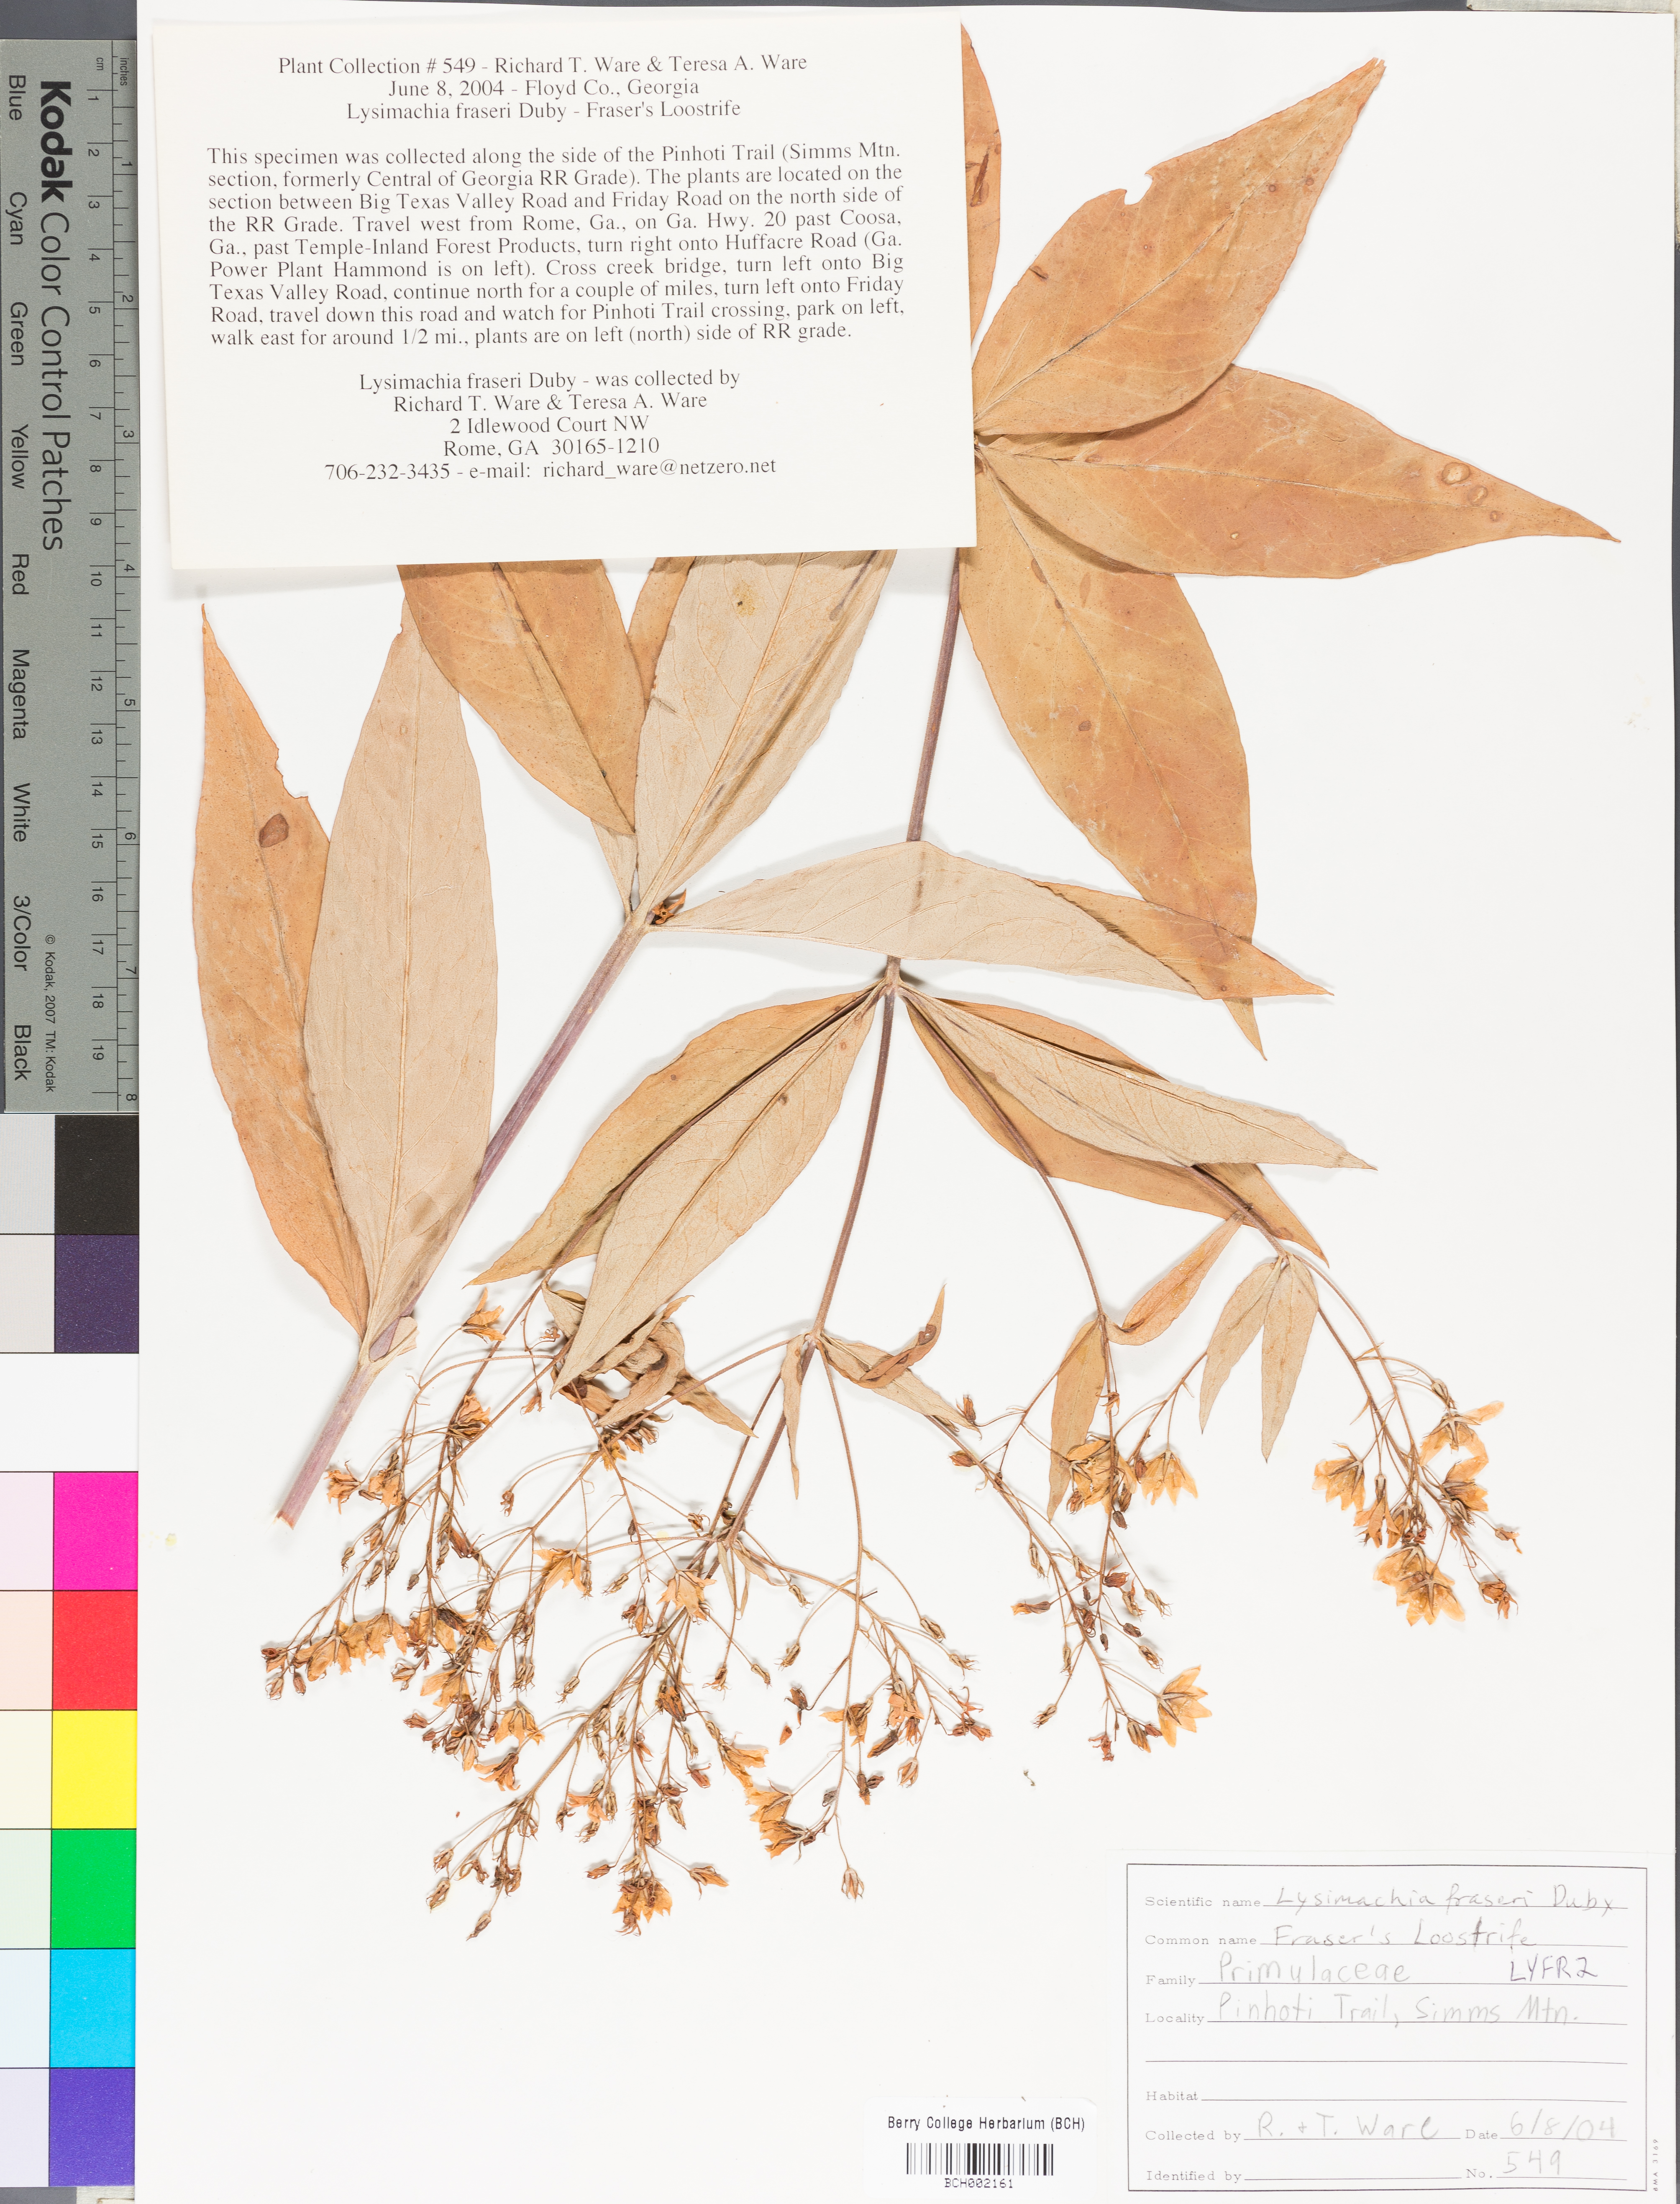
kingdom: Plantae
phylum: Tracheophyta
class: Magnoliopsida
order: Ericales
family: Primulaceae
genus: Lysimachia
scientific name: Lysimachia fraseri
